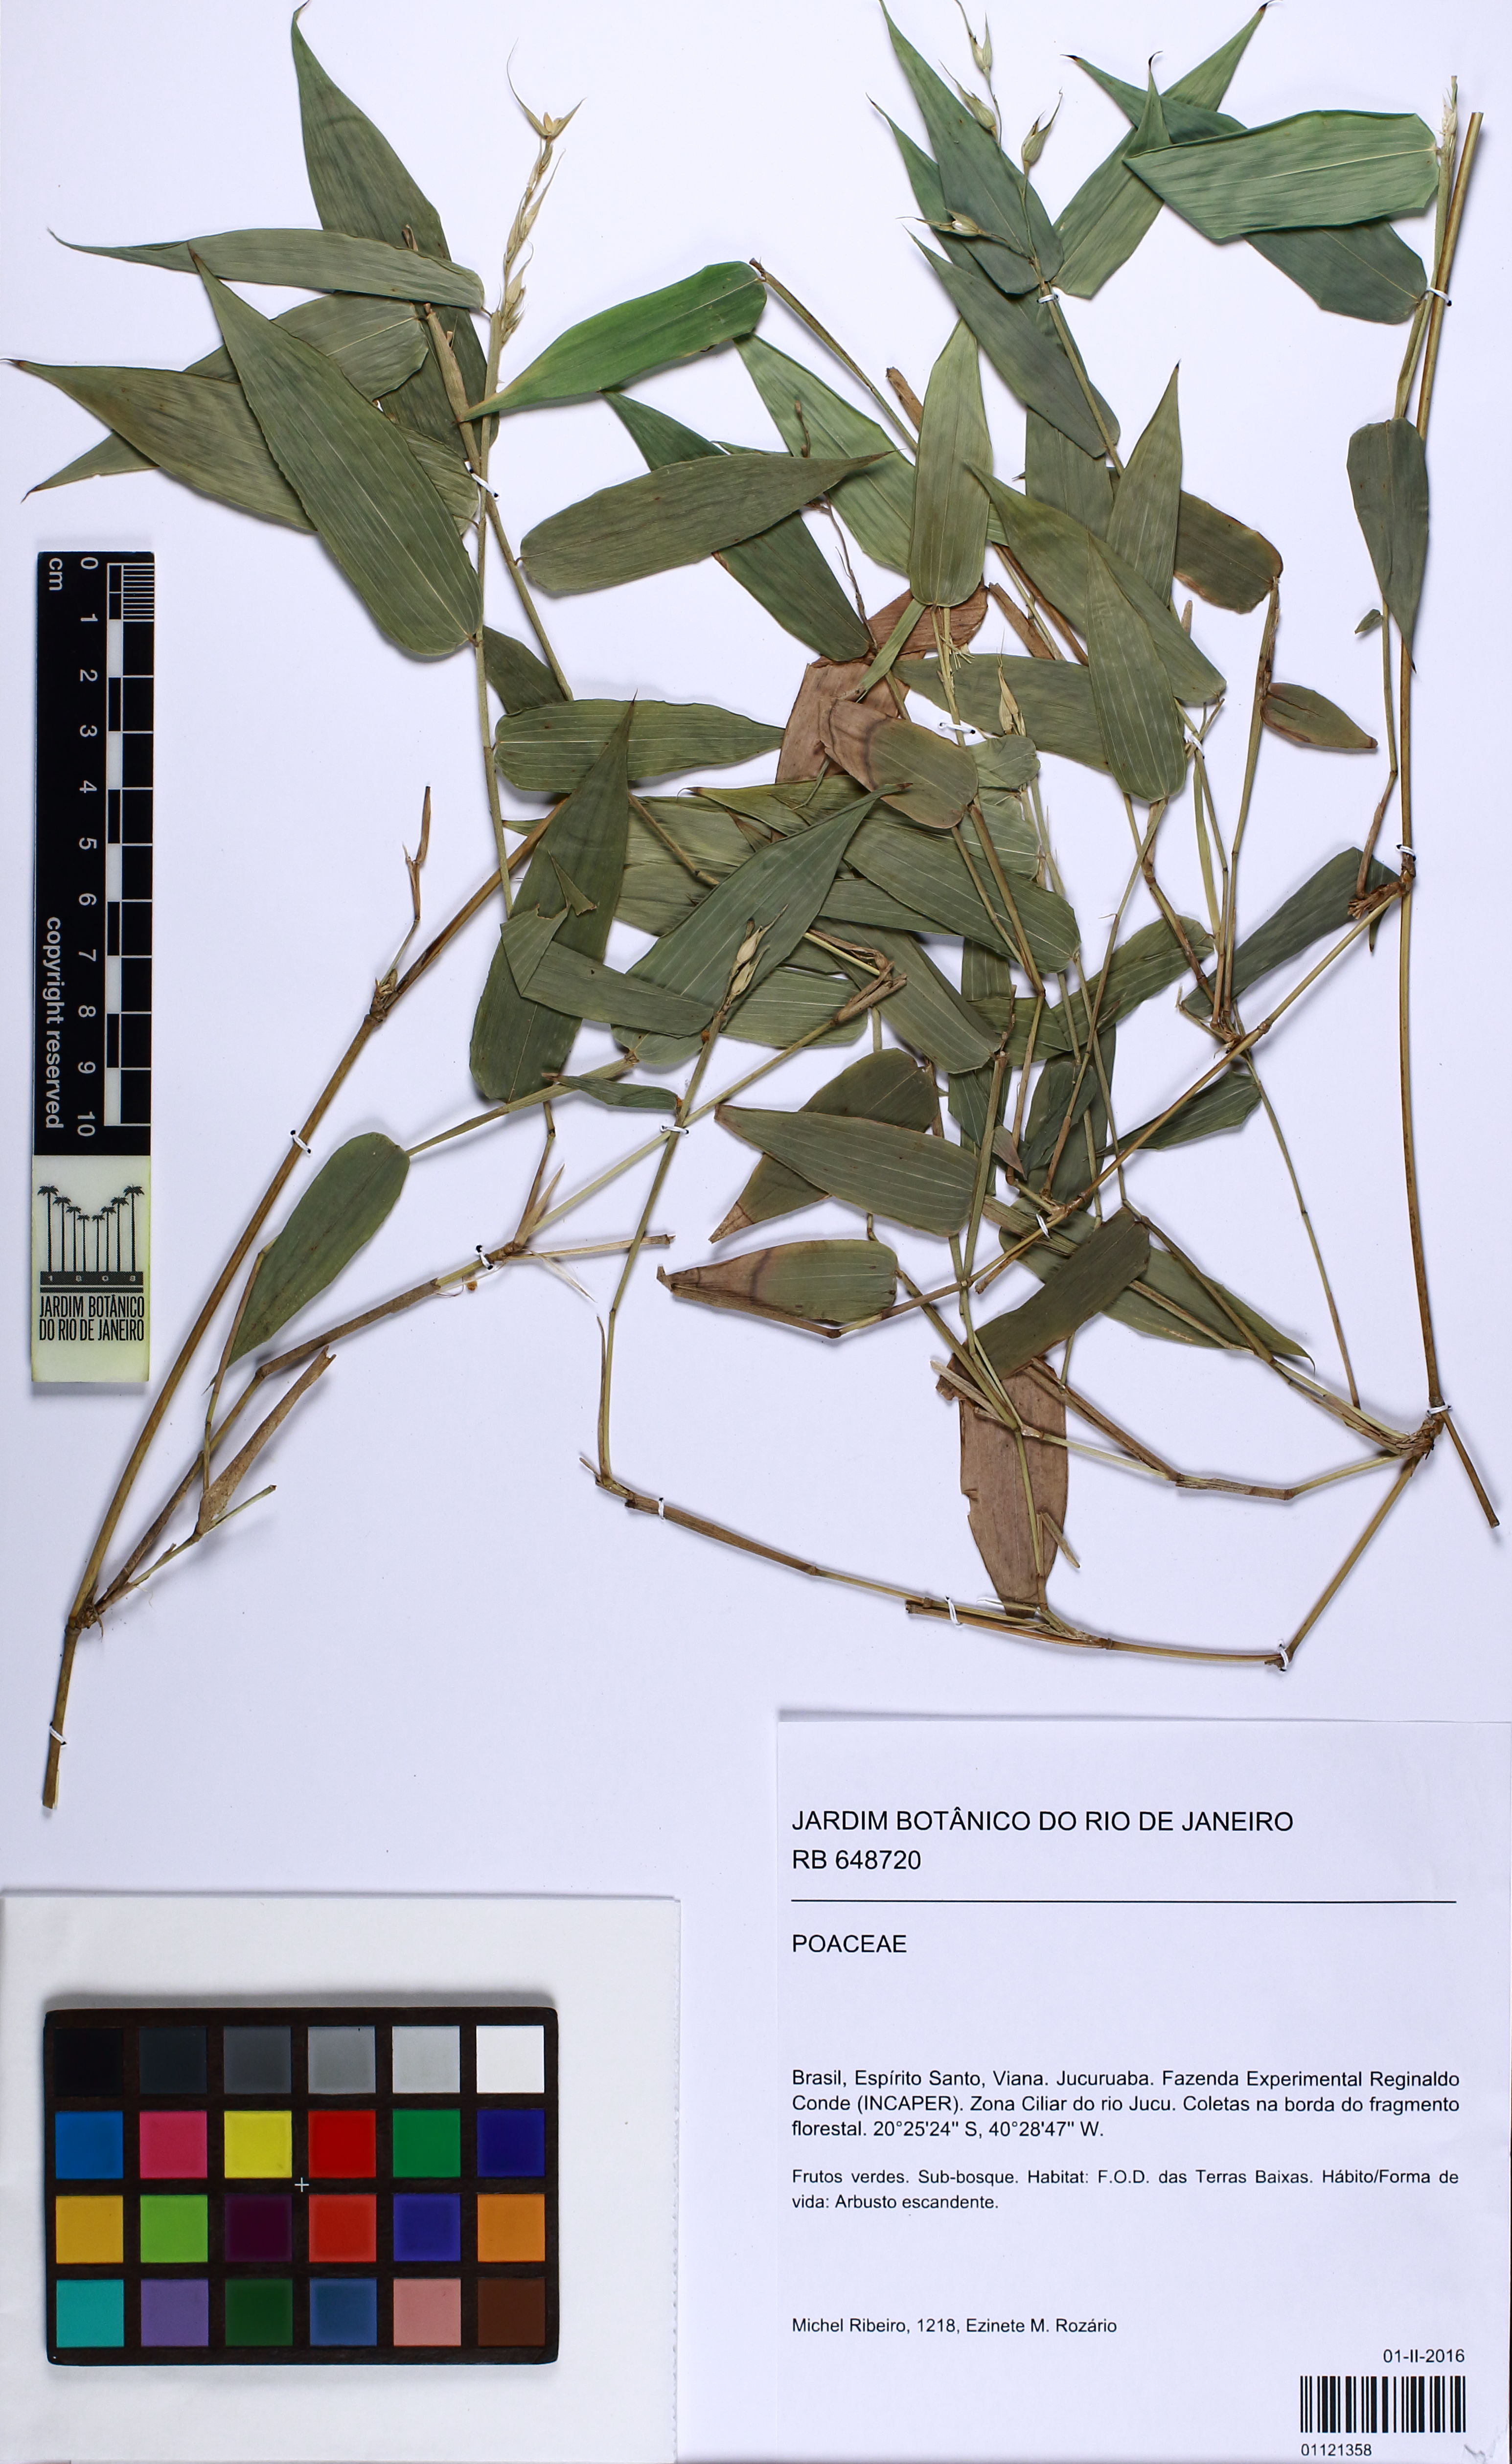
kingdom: Plantae
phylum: Tracheophyta
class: Liliopsida
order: Poales
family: Poaceae
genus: Olyra
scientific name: Olyra
